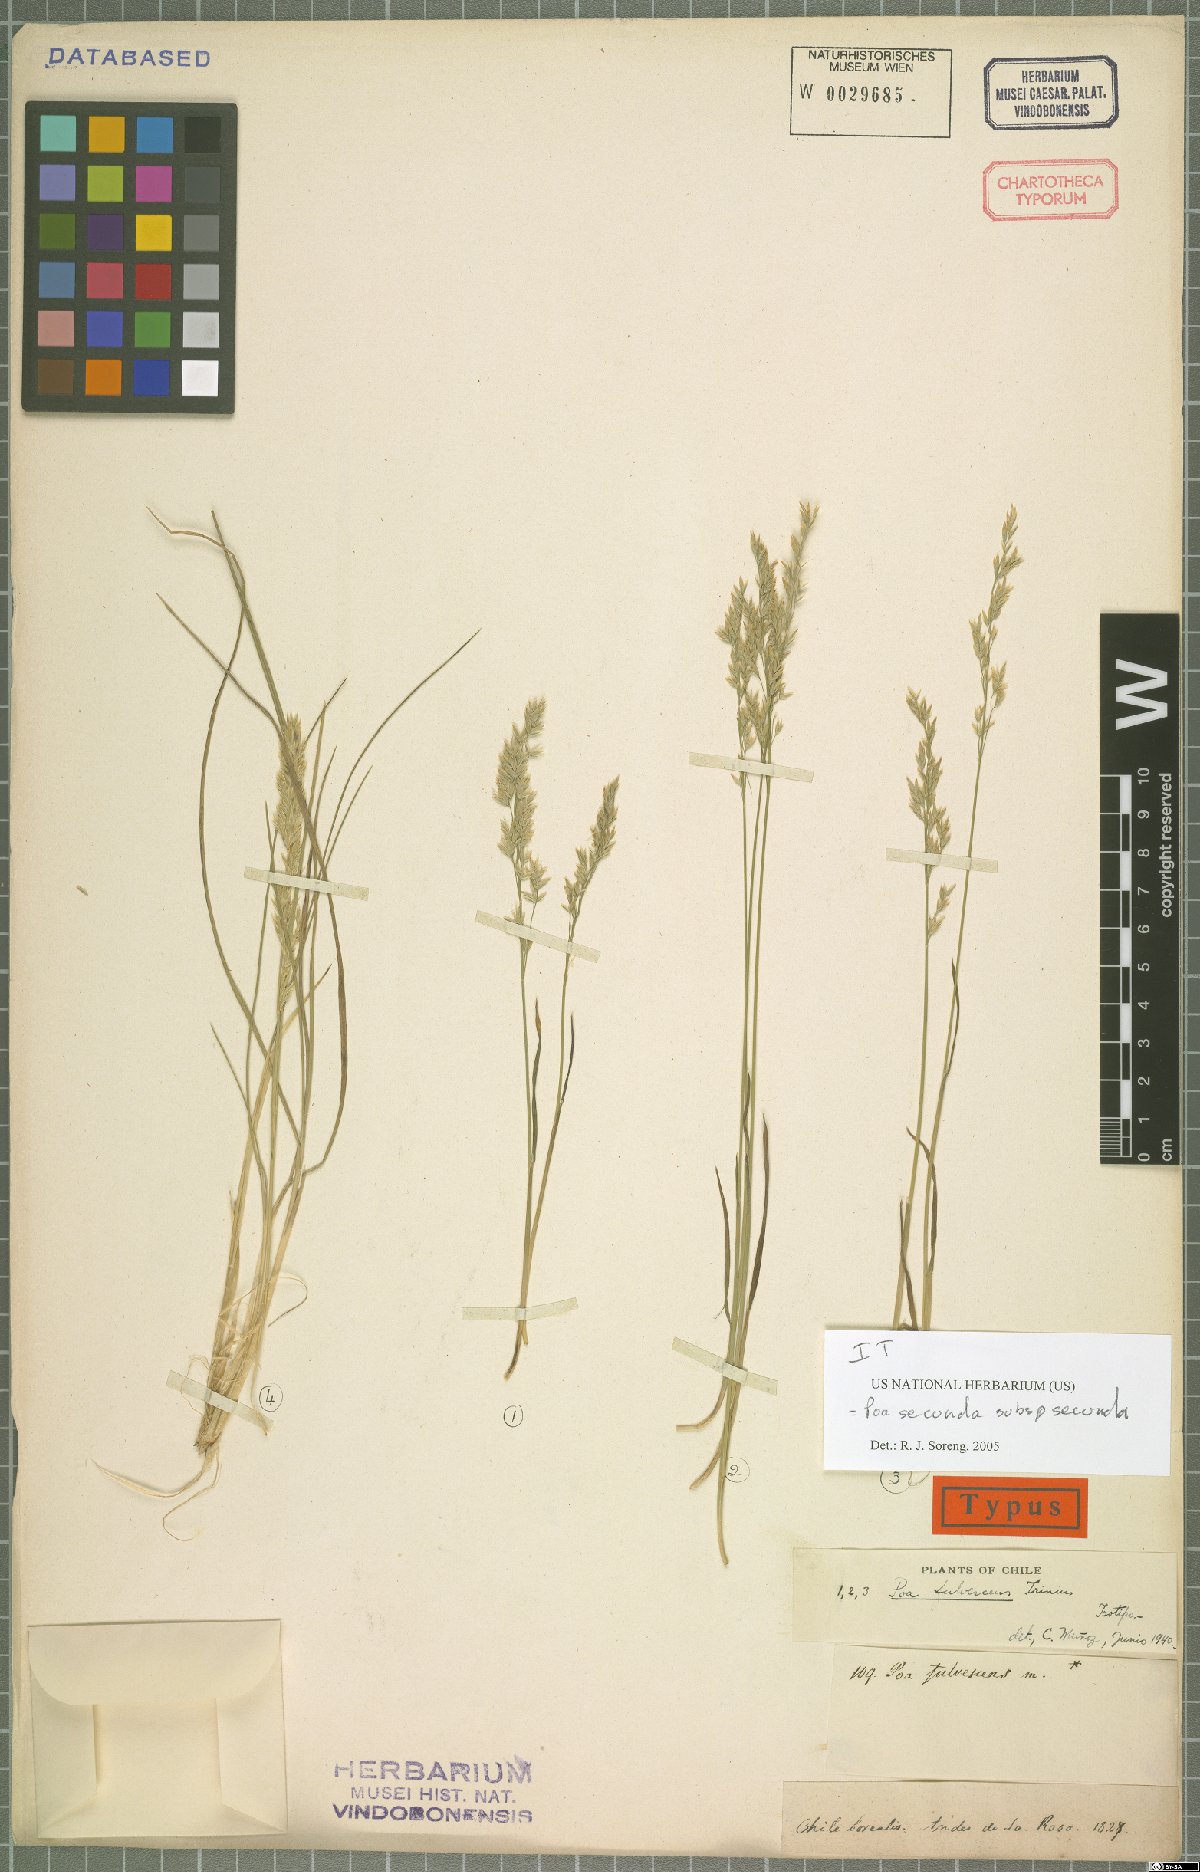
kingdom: Plantae
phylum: Tracheophyta
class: Liliopsida
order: Poales
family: Poaceae
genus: Poa
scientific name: Poa secunda
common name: Sandberg bluegrass
